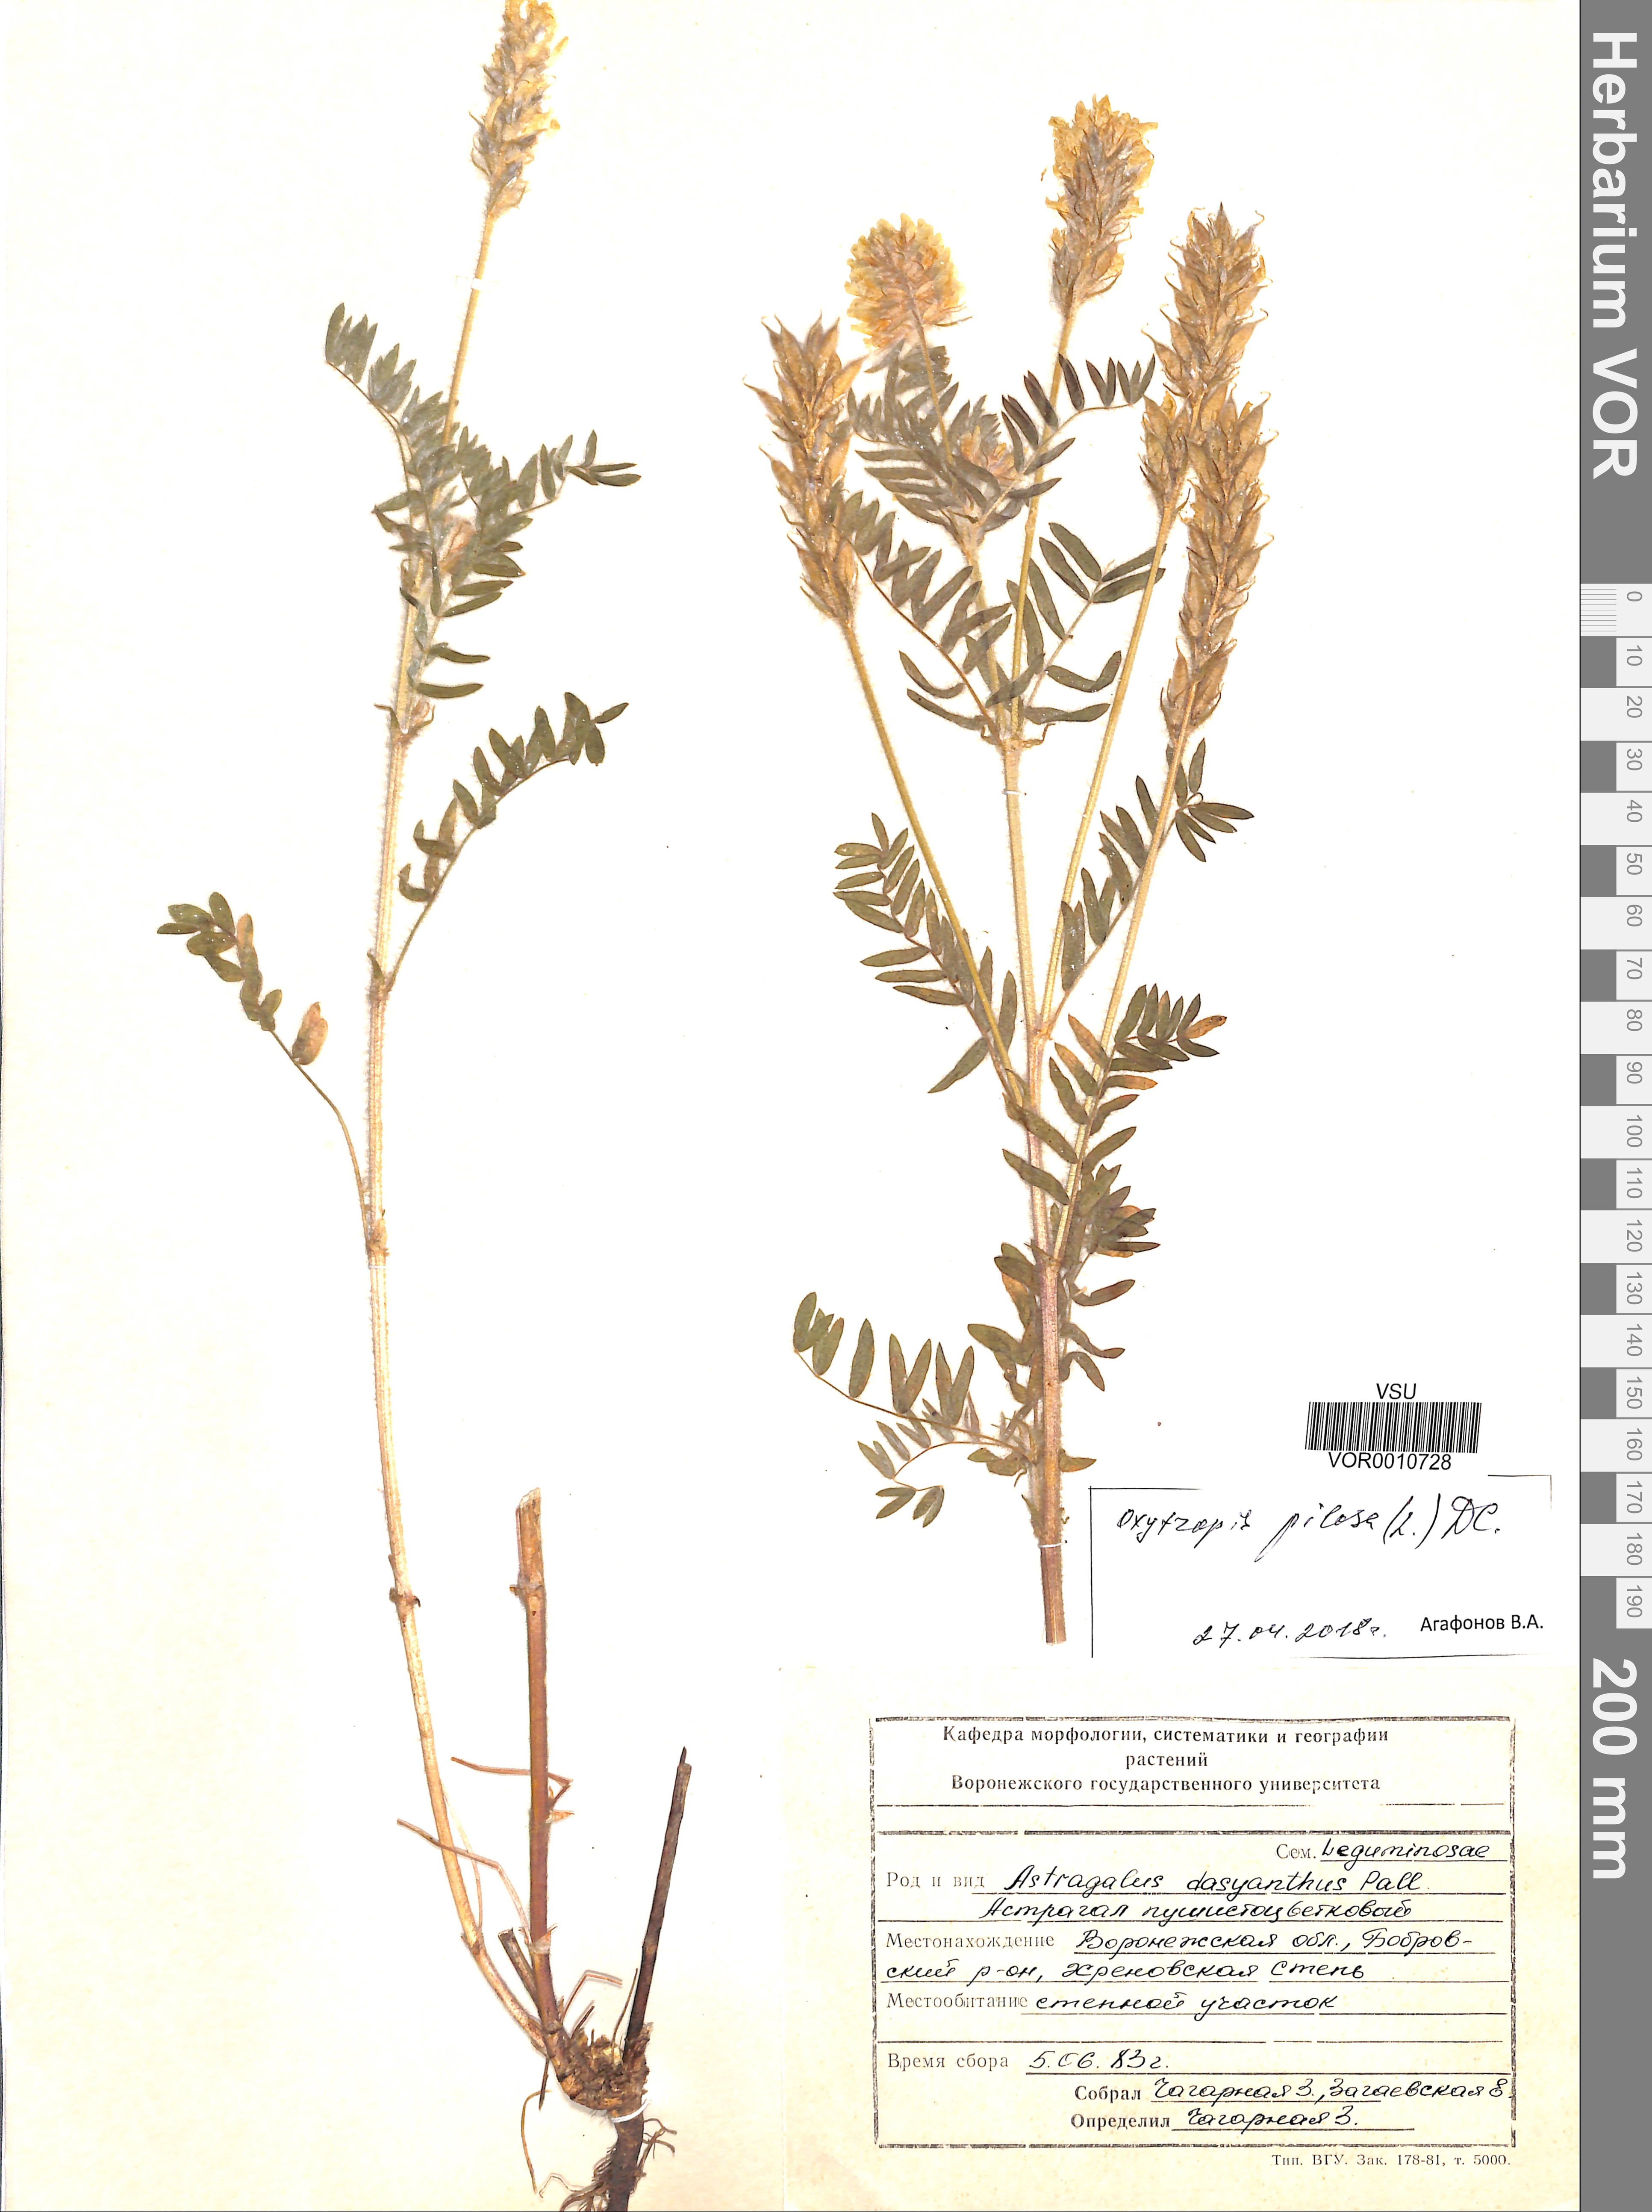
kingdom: Plantae
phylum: Tracheophyta
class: Magnoliopsida
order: Fabales
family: Fabaceae
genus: Oxytropis
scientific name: Oxytropis pilosa
